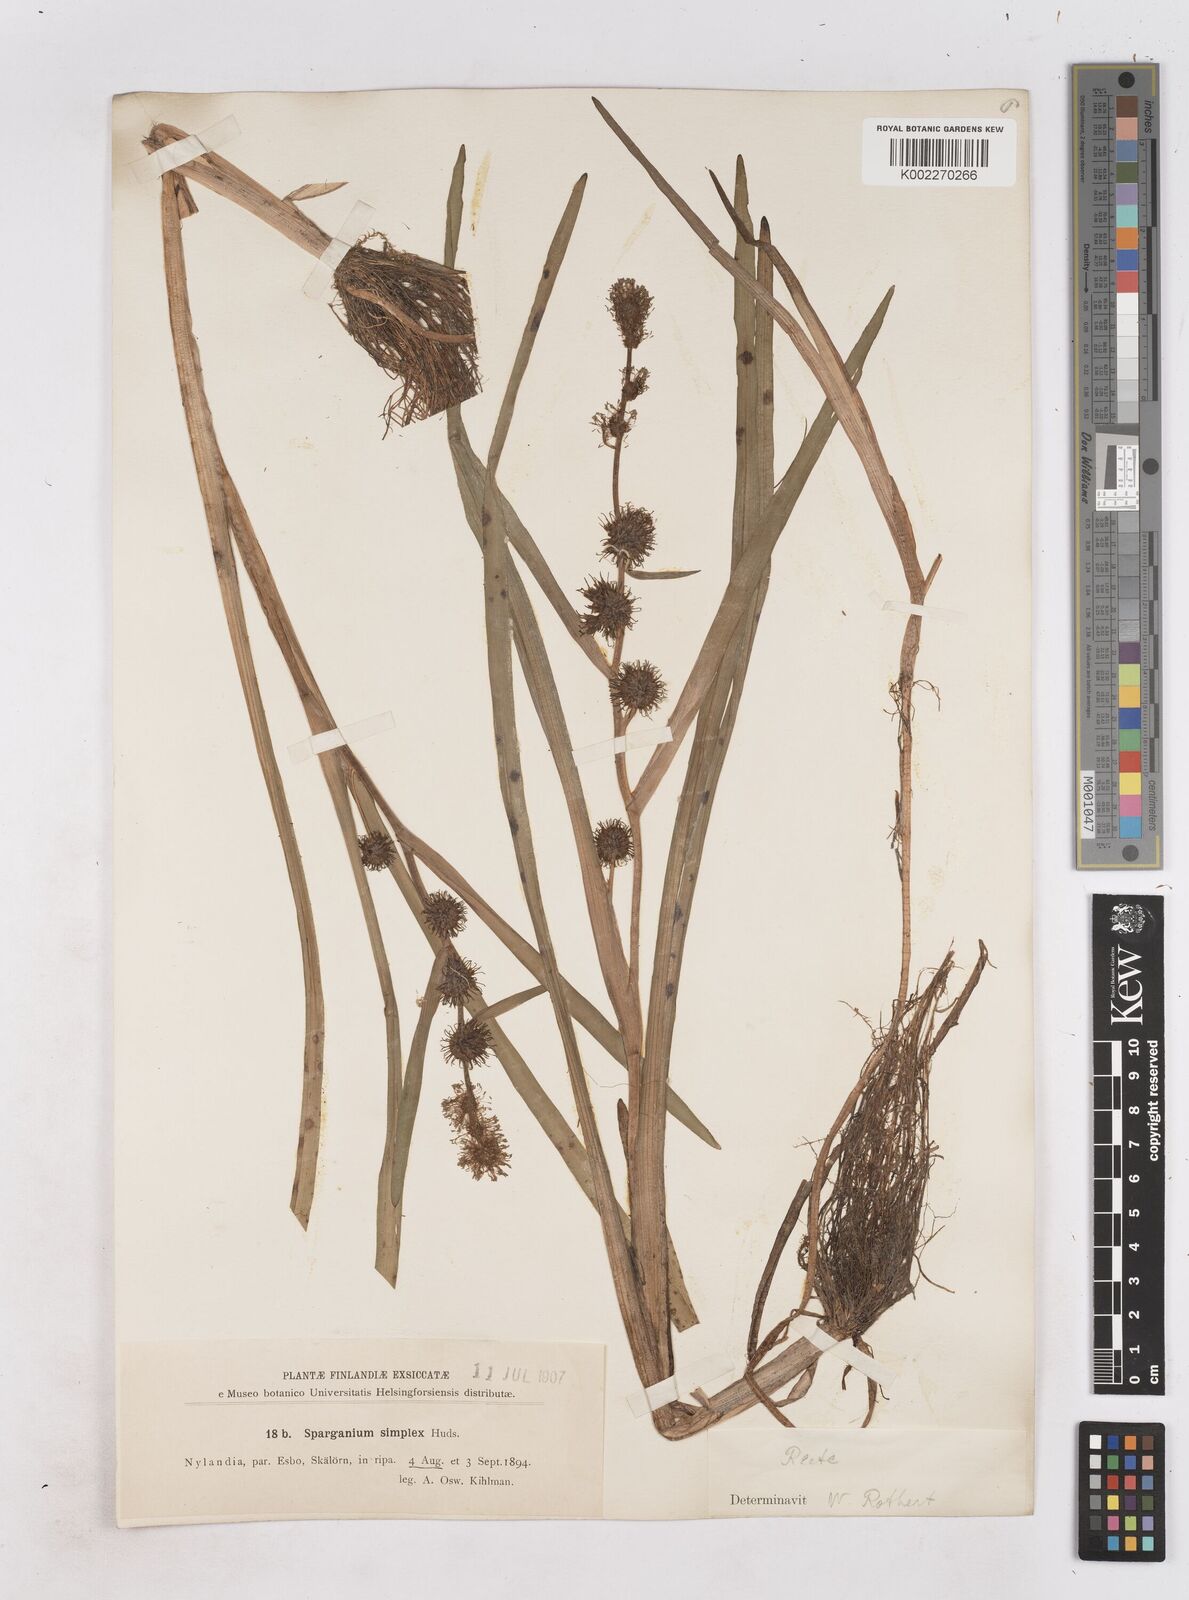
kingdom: Plantae
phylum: Tracheophyta
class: Liliopsida
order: Poales
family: Typhaceae
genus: Sparganium
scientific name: Sparganium emersum
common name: Unbranched bur-reed
